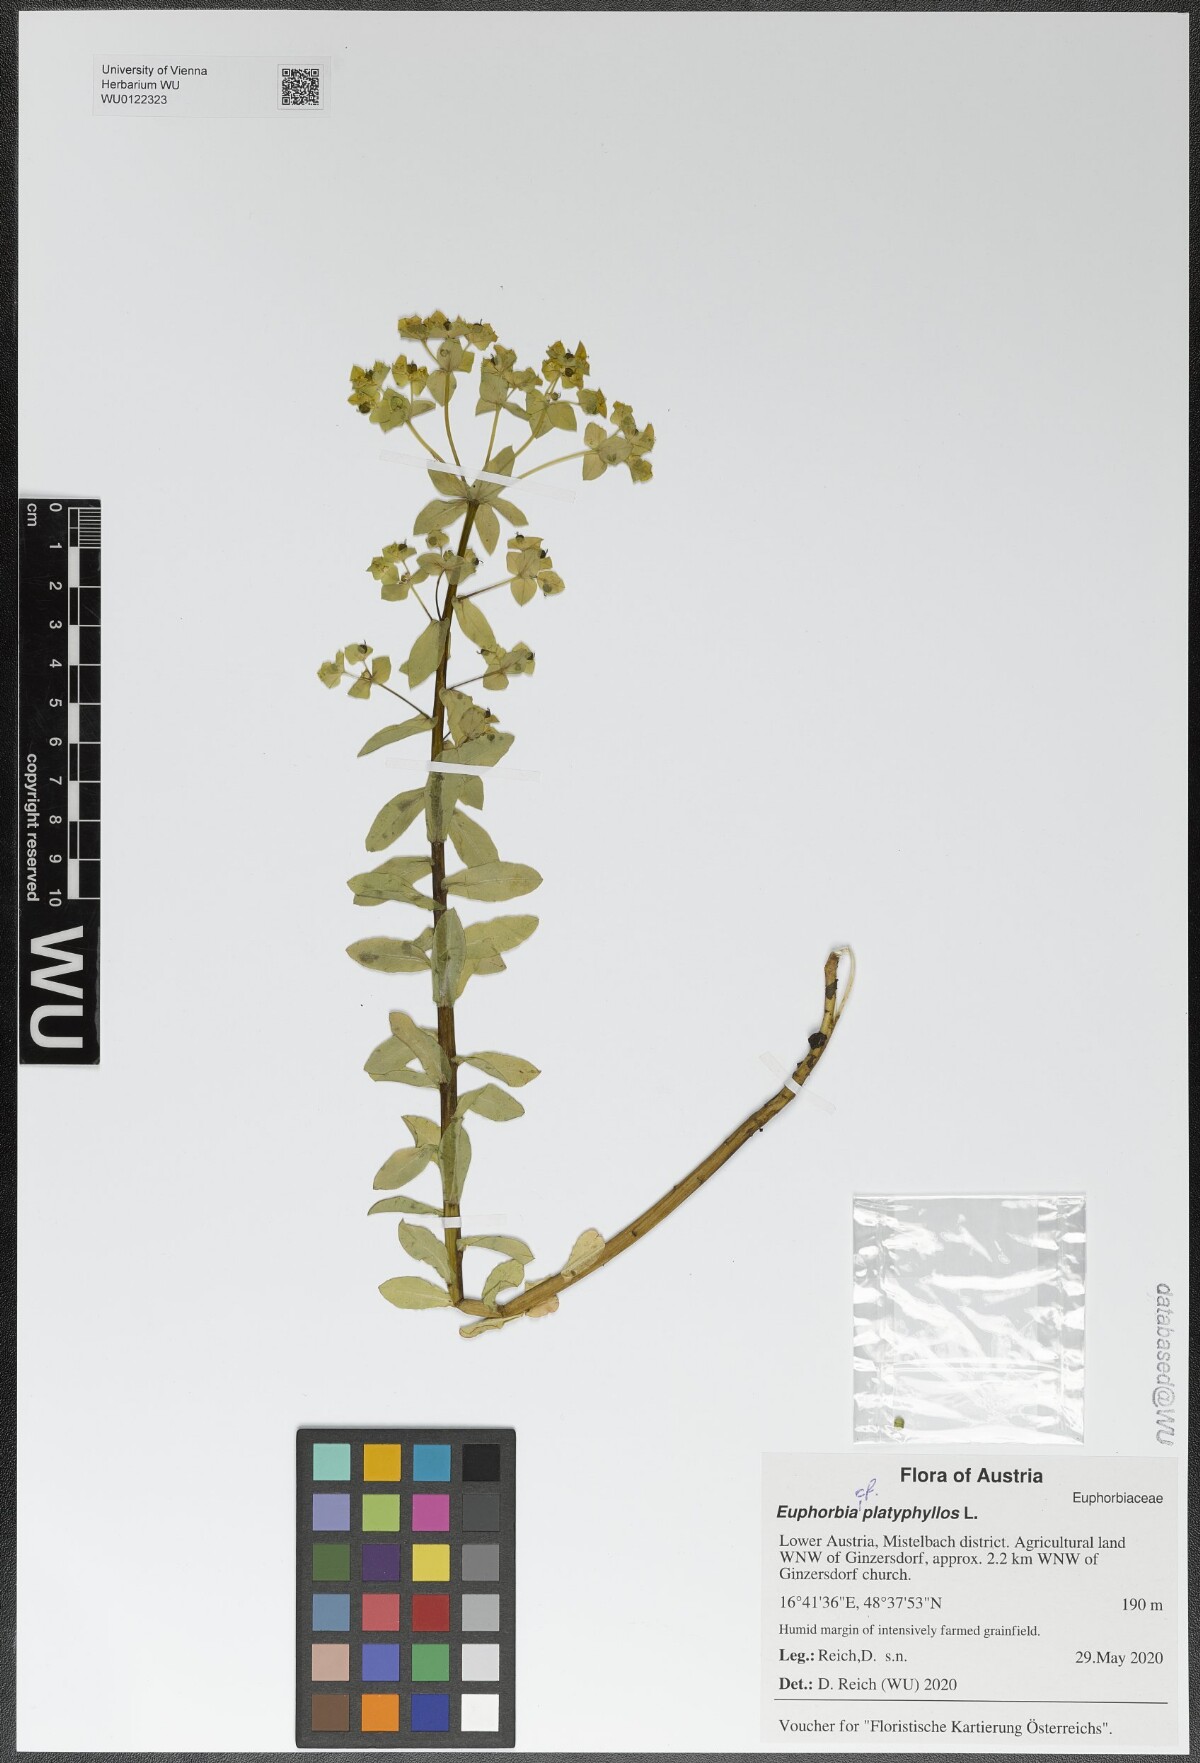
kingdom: Plantae
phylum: Tracheophyta
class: Magnoliopsida
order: Malpighiales
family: Euphorbiaceae
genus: Euphorbia
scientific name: Euphorbia platyphyllos
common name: Broad-leaved spurge
